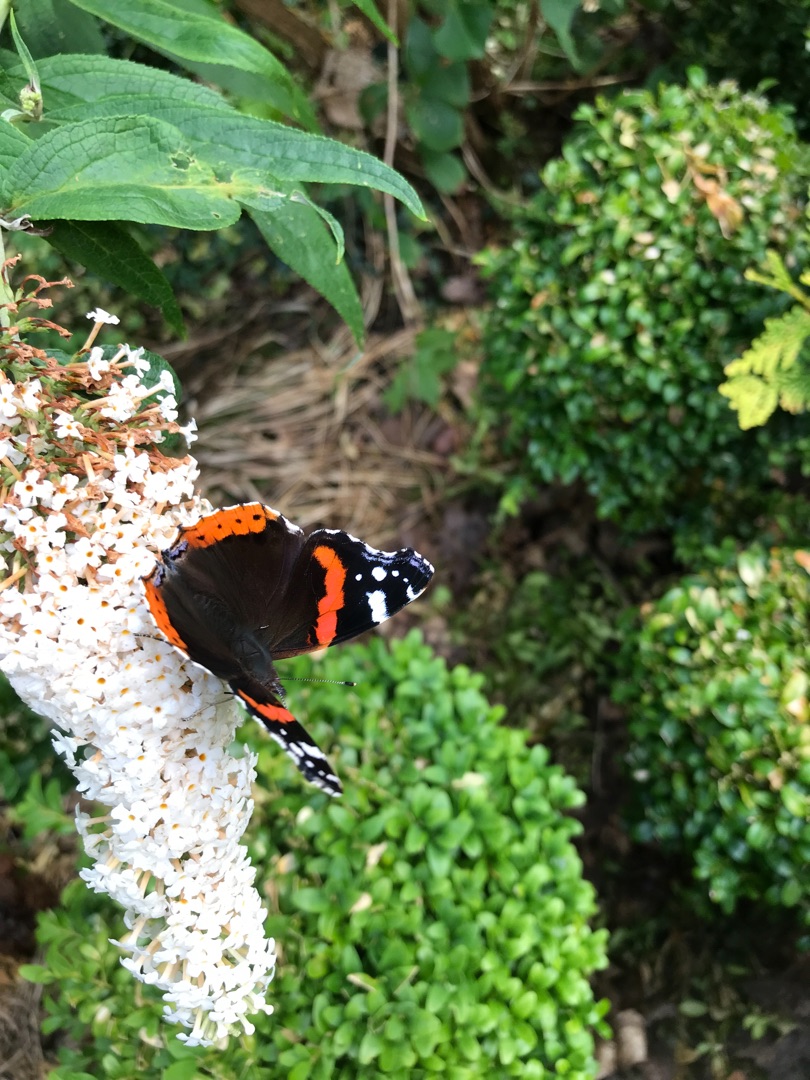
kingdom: Animalia
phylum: Arthropoda
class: Insecta
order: Lepidoptera
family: Nymphalidae
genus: Vanessa
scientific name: Vanessa atalanta
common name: Admiral
